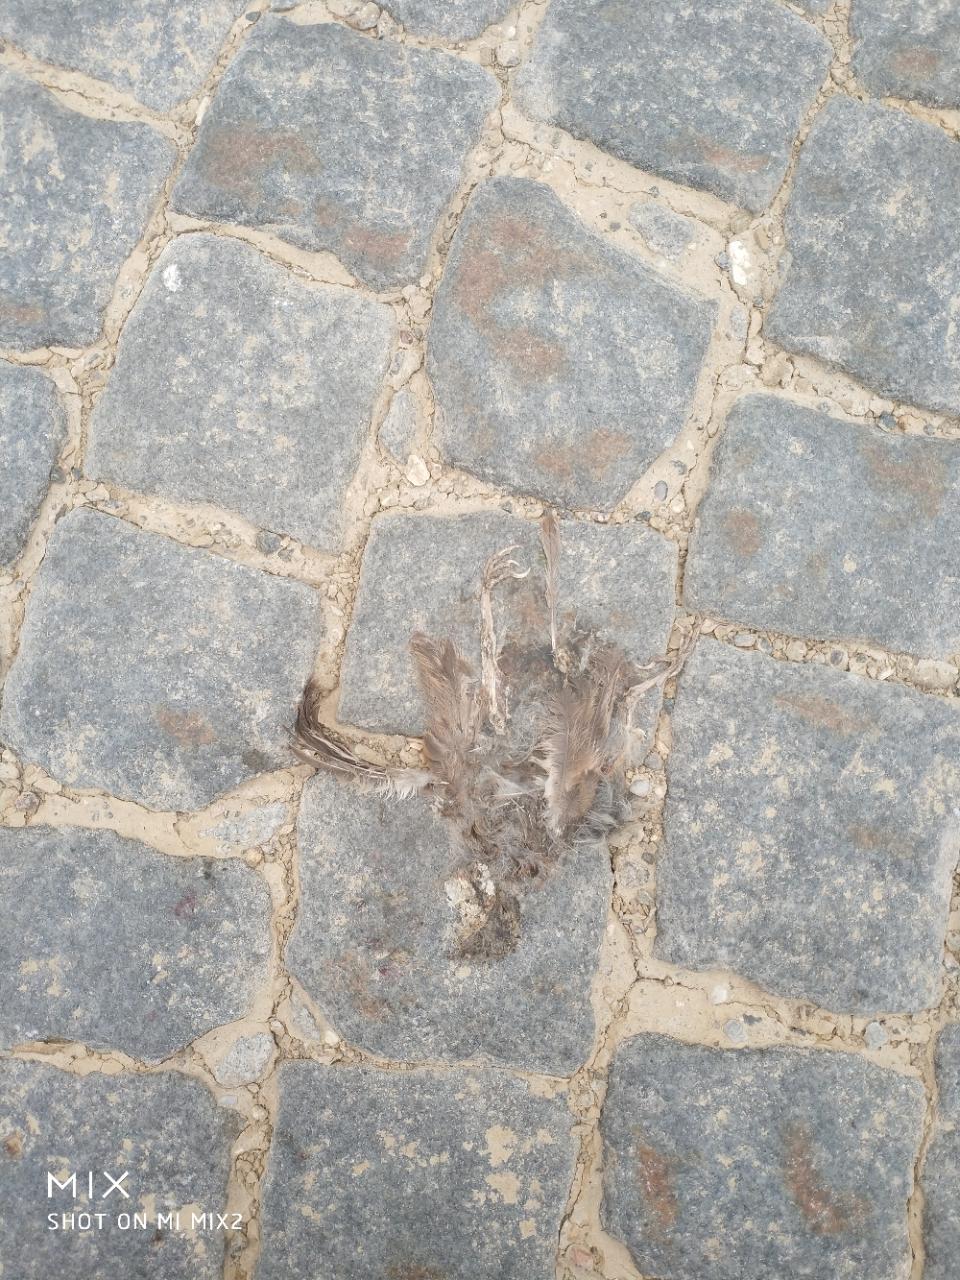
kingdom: Animalia
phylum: Chordata
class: Aves
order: Passeriformes
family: Passeridae
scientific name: Passeridae
